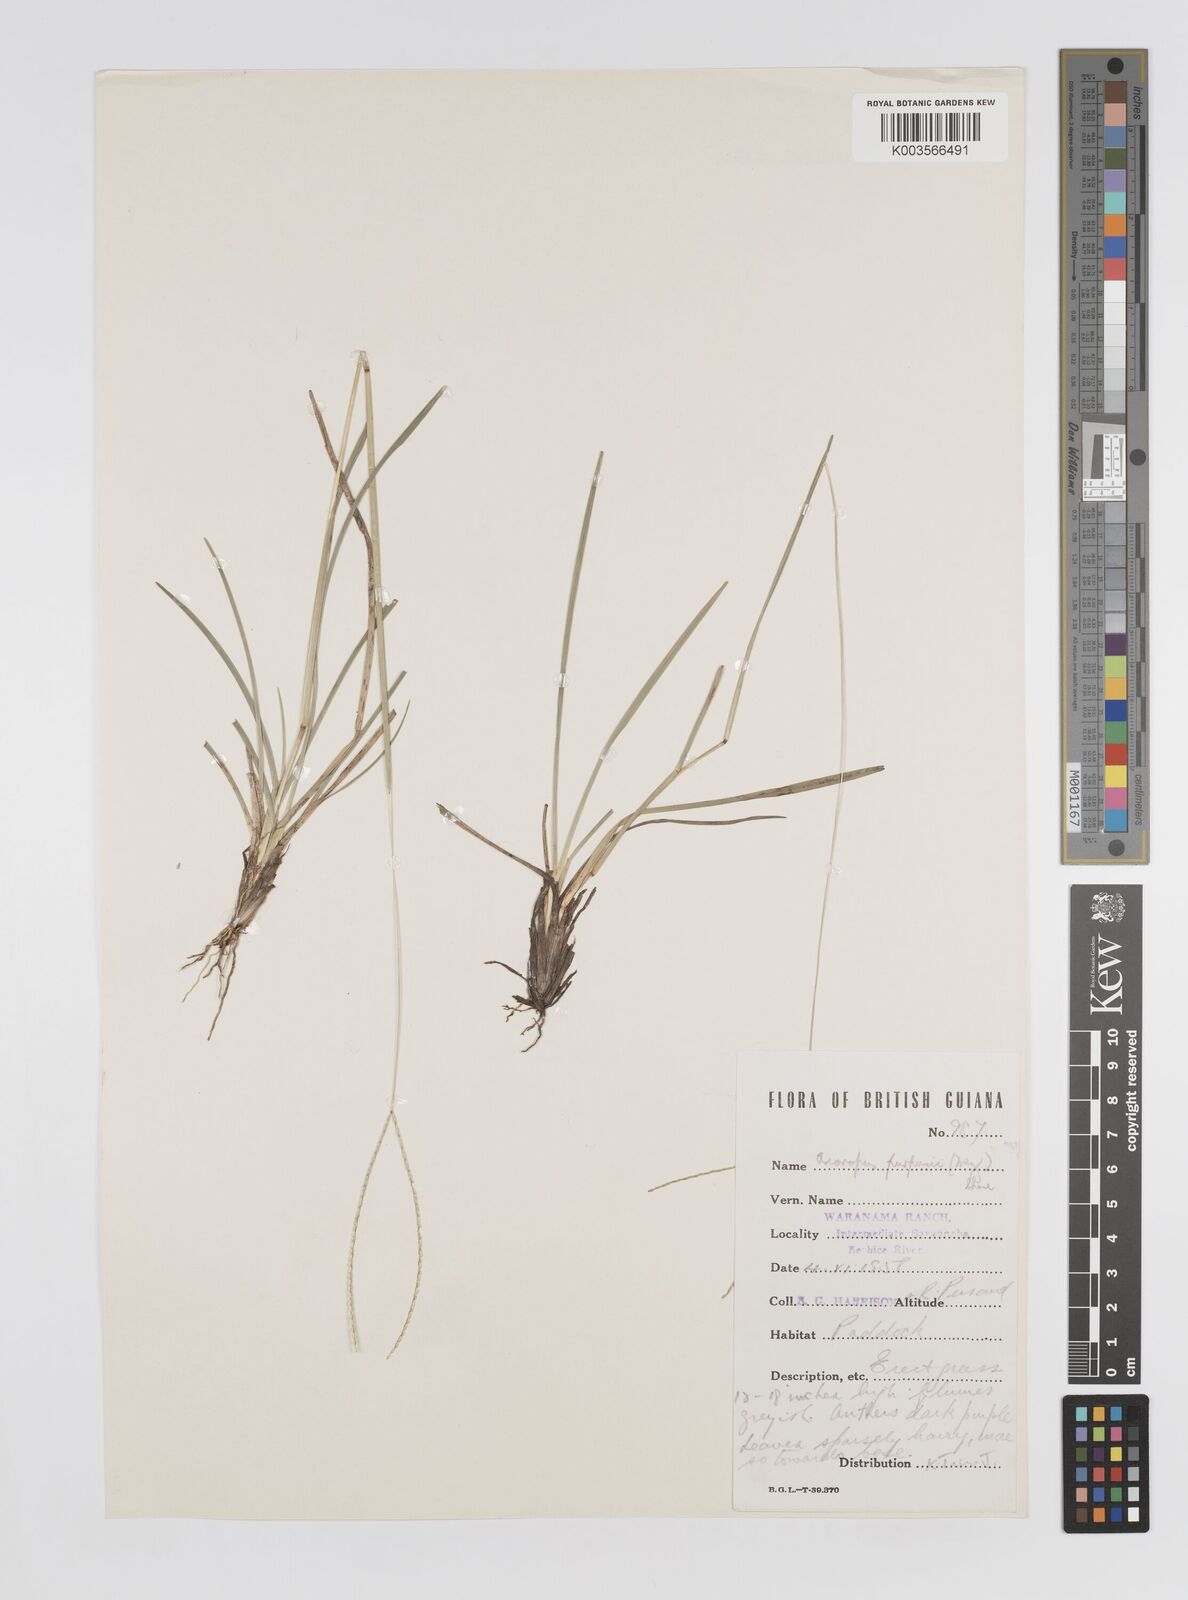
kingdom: Plantae
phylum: Tracheophyta
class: Liliopsida
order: Poales
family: Poaceae
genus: Axonopus
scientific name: Axonopus purpusii
